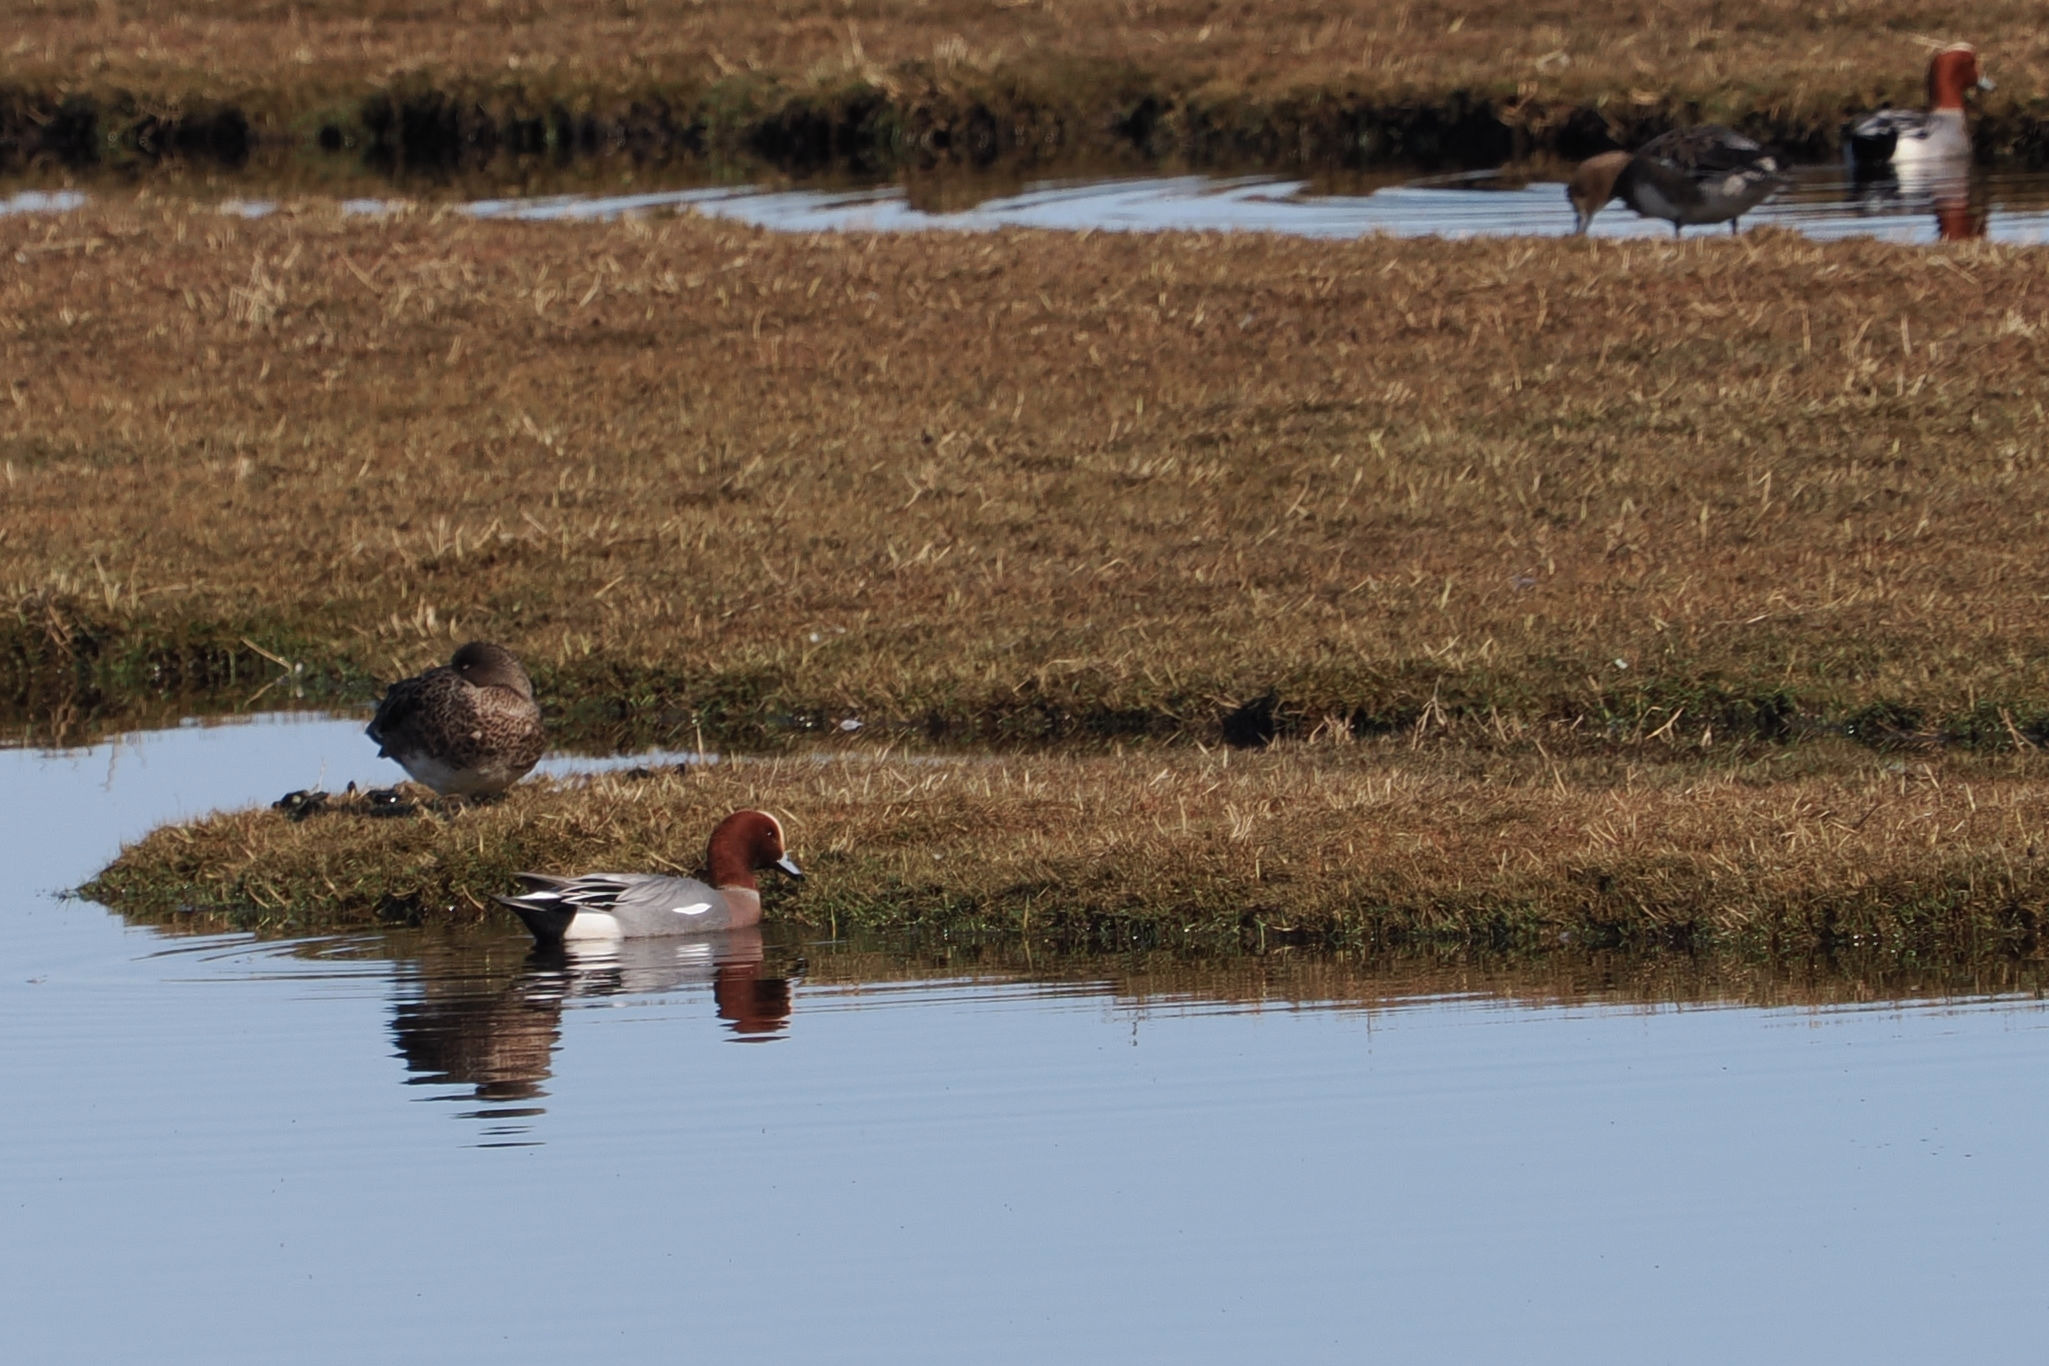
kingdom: Animalia
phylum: Chordata
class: Aves
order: Anseriformes
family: Anatidae
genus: Mareca
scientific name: Mareca penelope
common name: Pibeand
